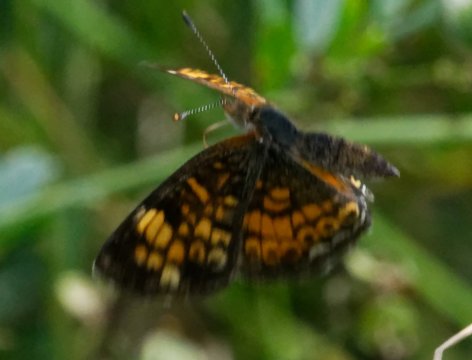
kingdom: Animalia
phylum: Arthropoda
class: Insecta
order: Lepidoptera
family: Nymphalidae
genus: Phyciodes
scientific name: Phyciodes tharos
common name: Pearl Crescent
